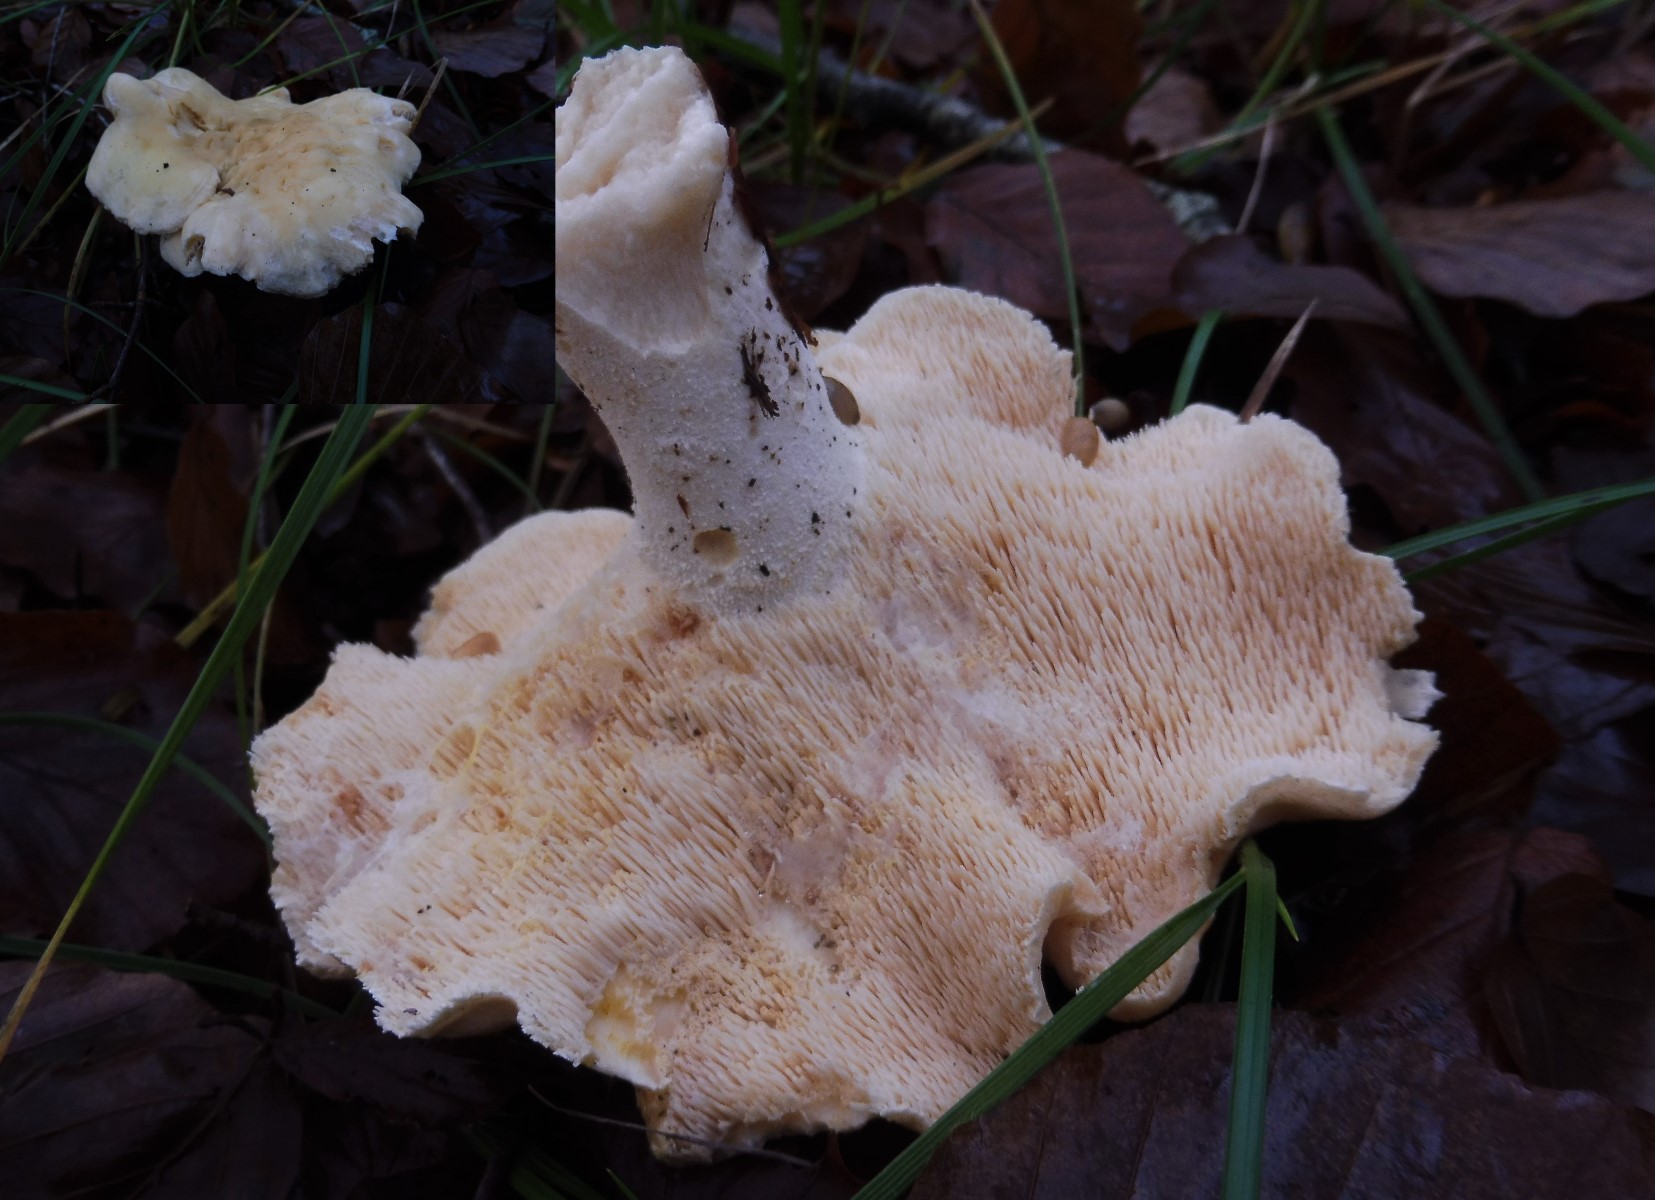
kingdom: Fungi
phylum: Basidiomycota
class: Agaricomycetes
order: Cantharellales
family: Hydnaceae
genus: Hydnum
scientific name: Hydnum repandum
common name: almindelig pigsvamp
